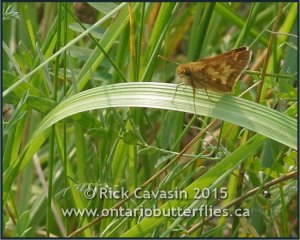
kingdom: Animalia
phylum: Arthropoda
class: Insecta
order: Lepidoptera
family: Hesperiidae
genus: Polites
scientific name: Polites coras
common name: Peck's Skipper
